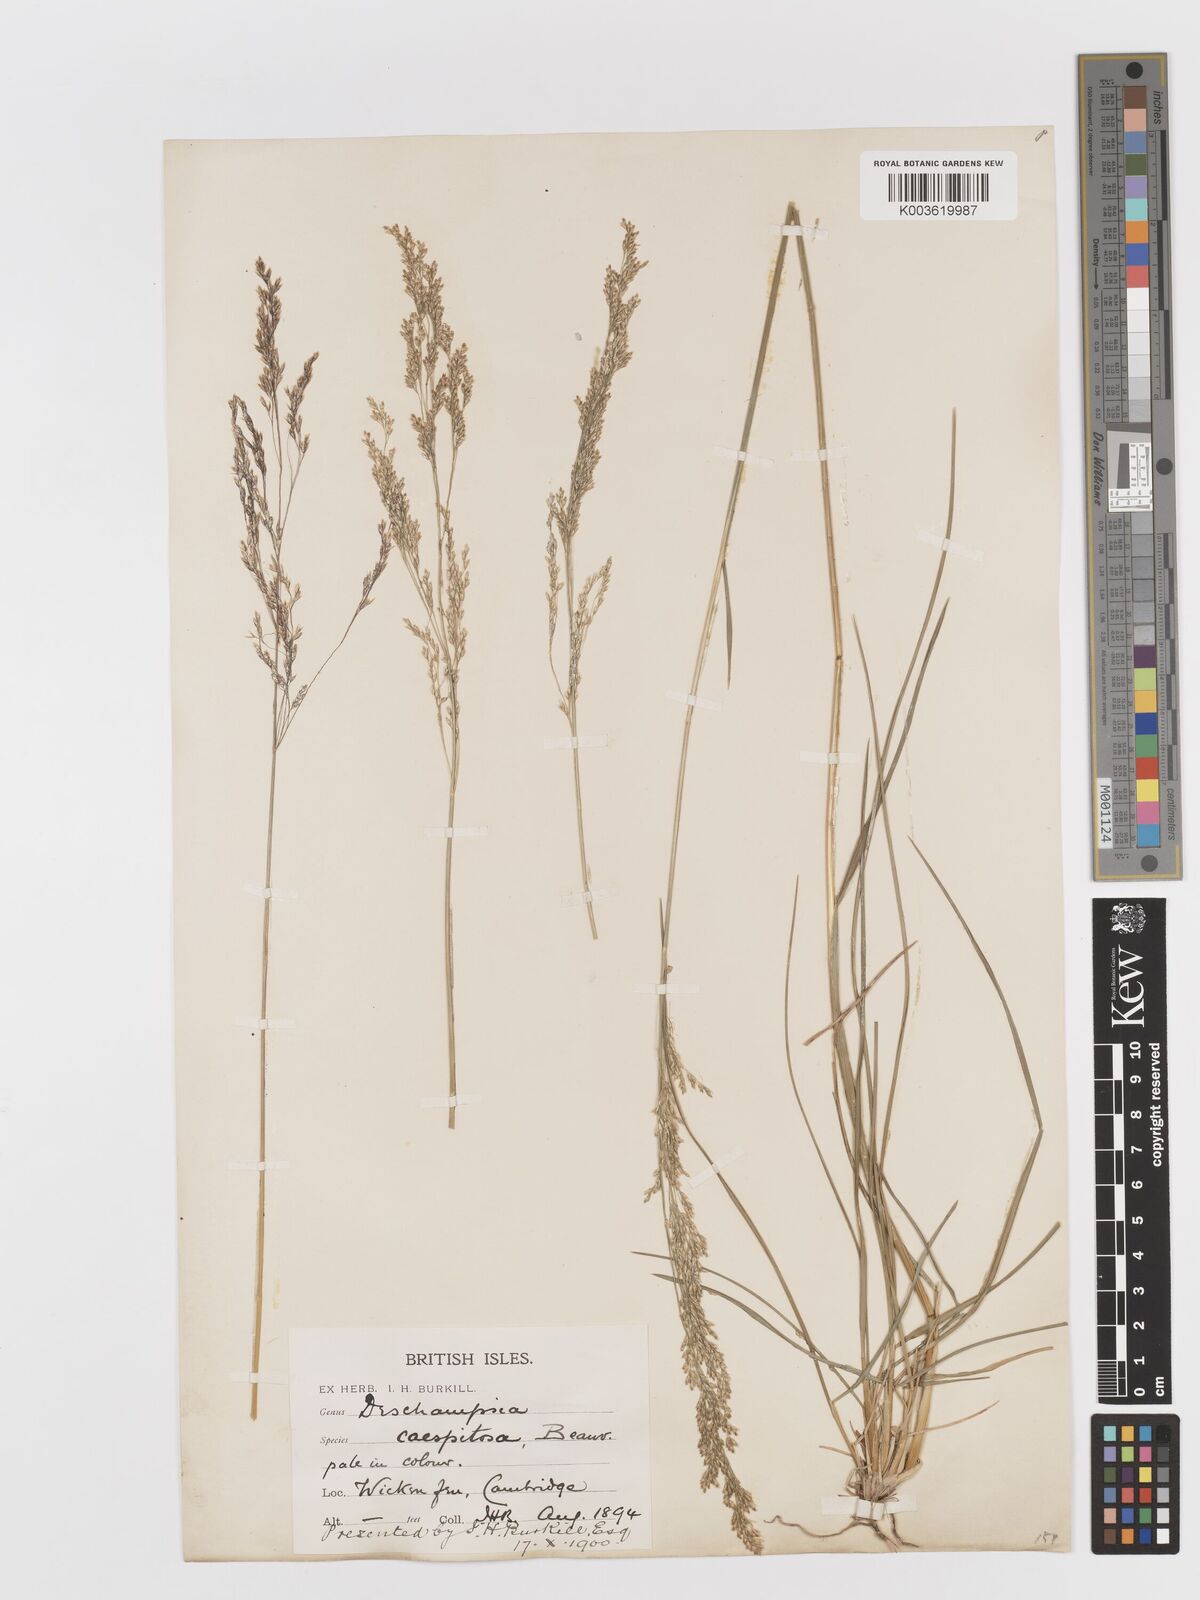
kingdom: Plantae
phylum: Tracheophyta
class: Liliopsida
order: Poales
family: Poaceae
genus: Deschampsia
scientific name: Deschampsia cespitosa
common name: Tufted hair-grass
